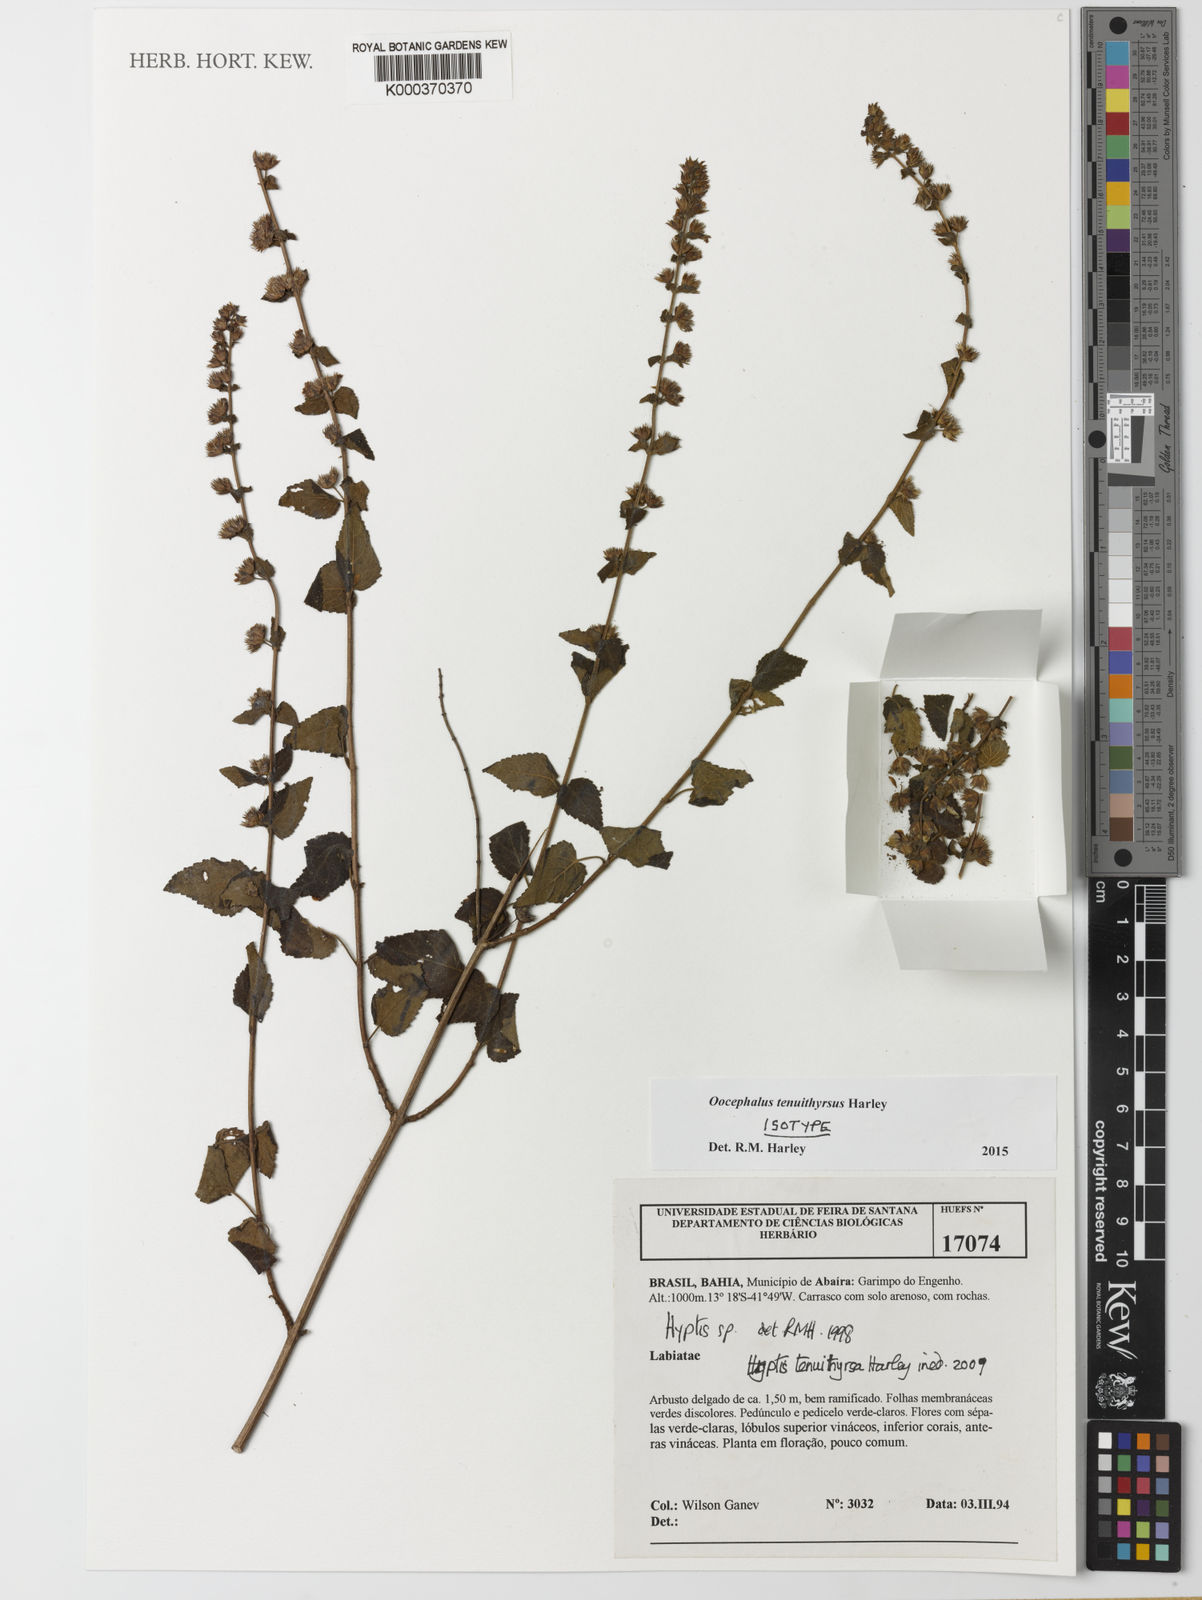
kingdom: Plantae
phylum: Tracheophyta
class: Magnoliopsida
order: Lamiales
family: Lamiaceae
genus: Oocephalus
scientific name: Oocephalus tenuithyrsus
